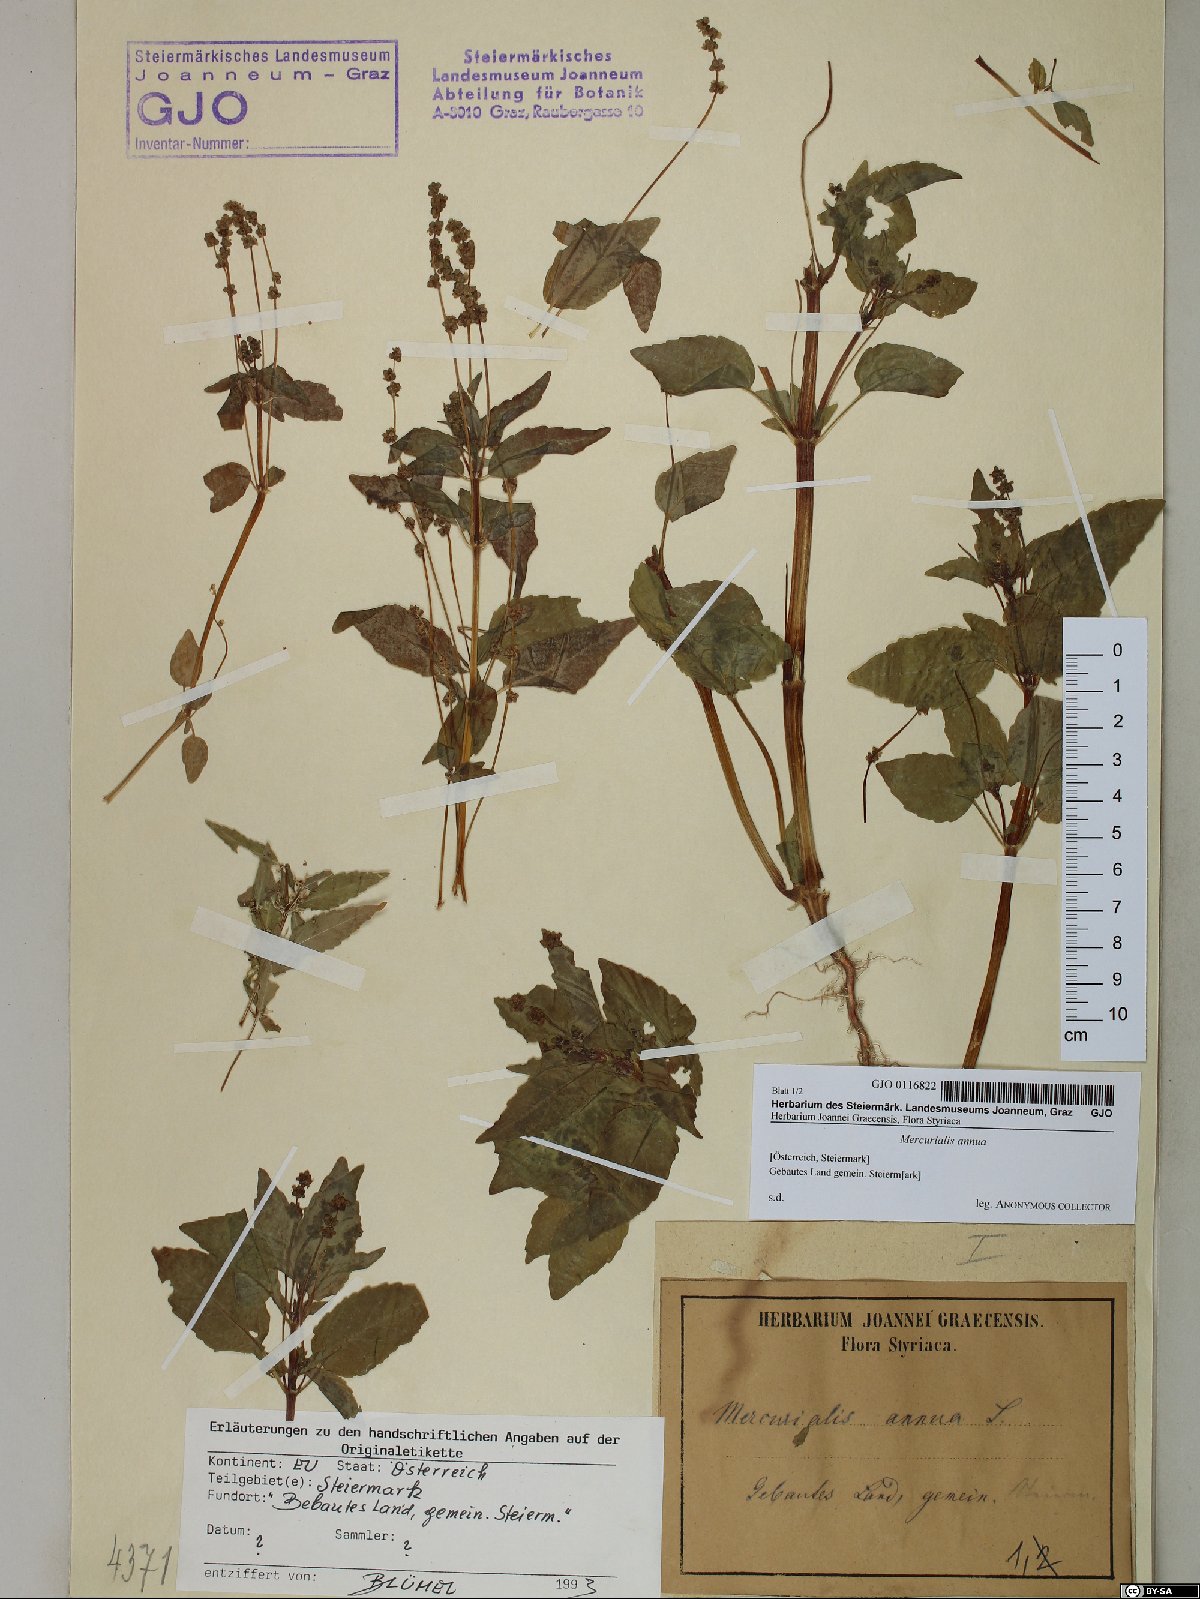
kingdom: Plantae
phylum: Tracheophyta
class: Magnoliopsida
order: Malpighiales
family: Euphorbiaceae
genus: Mercurialis
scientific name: Mercurialis annua
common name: Annual mercury
